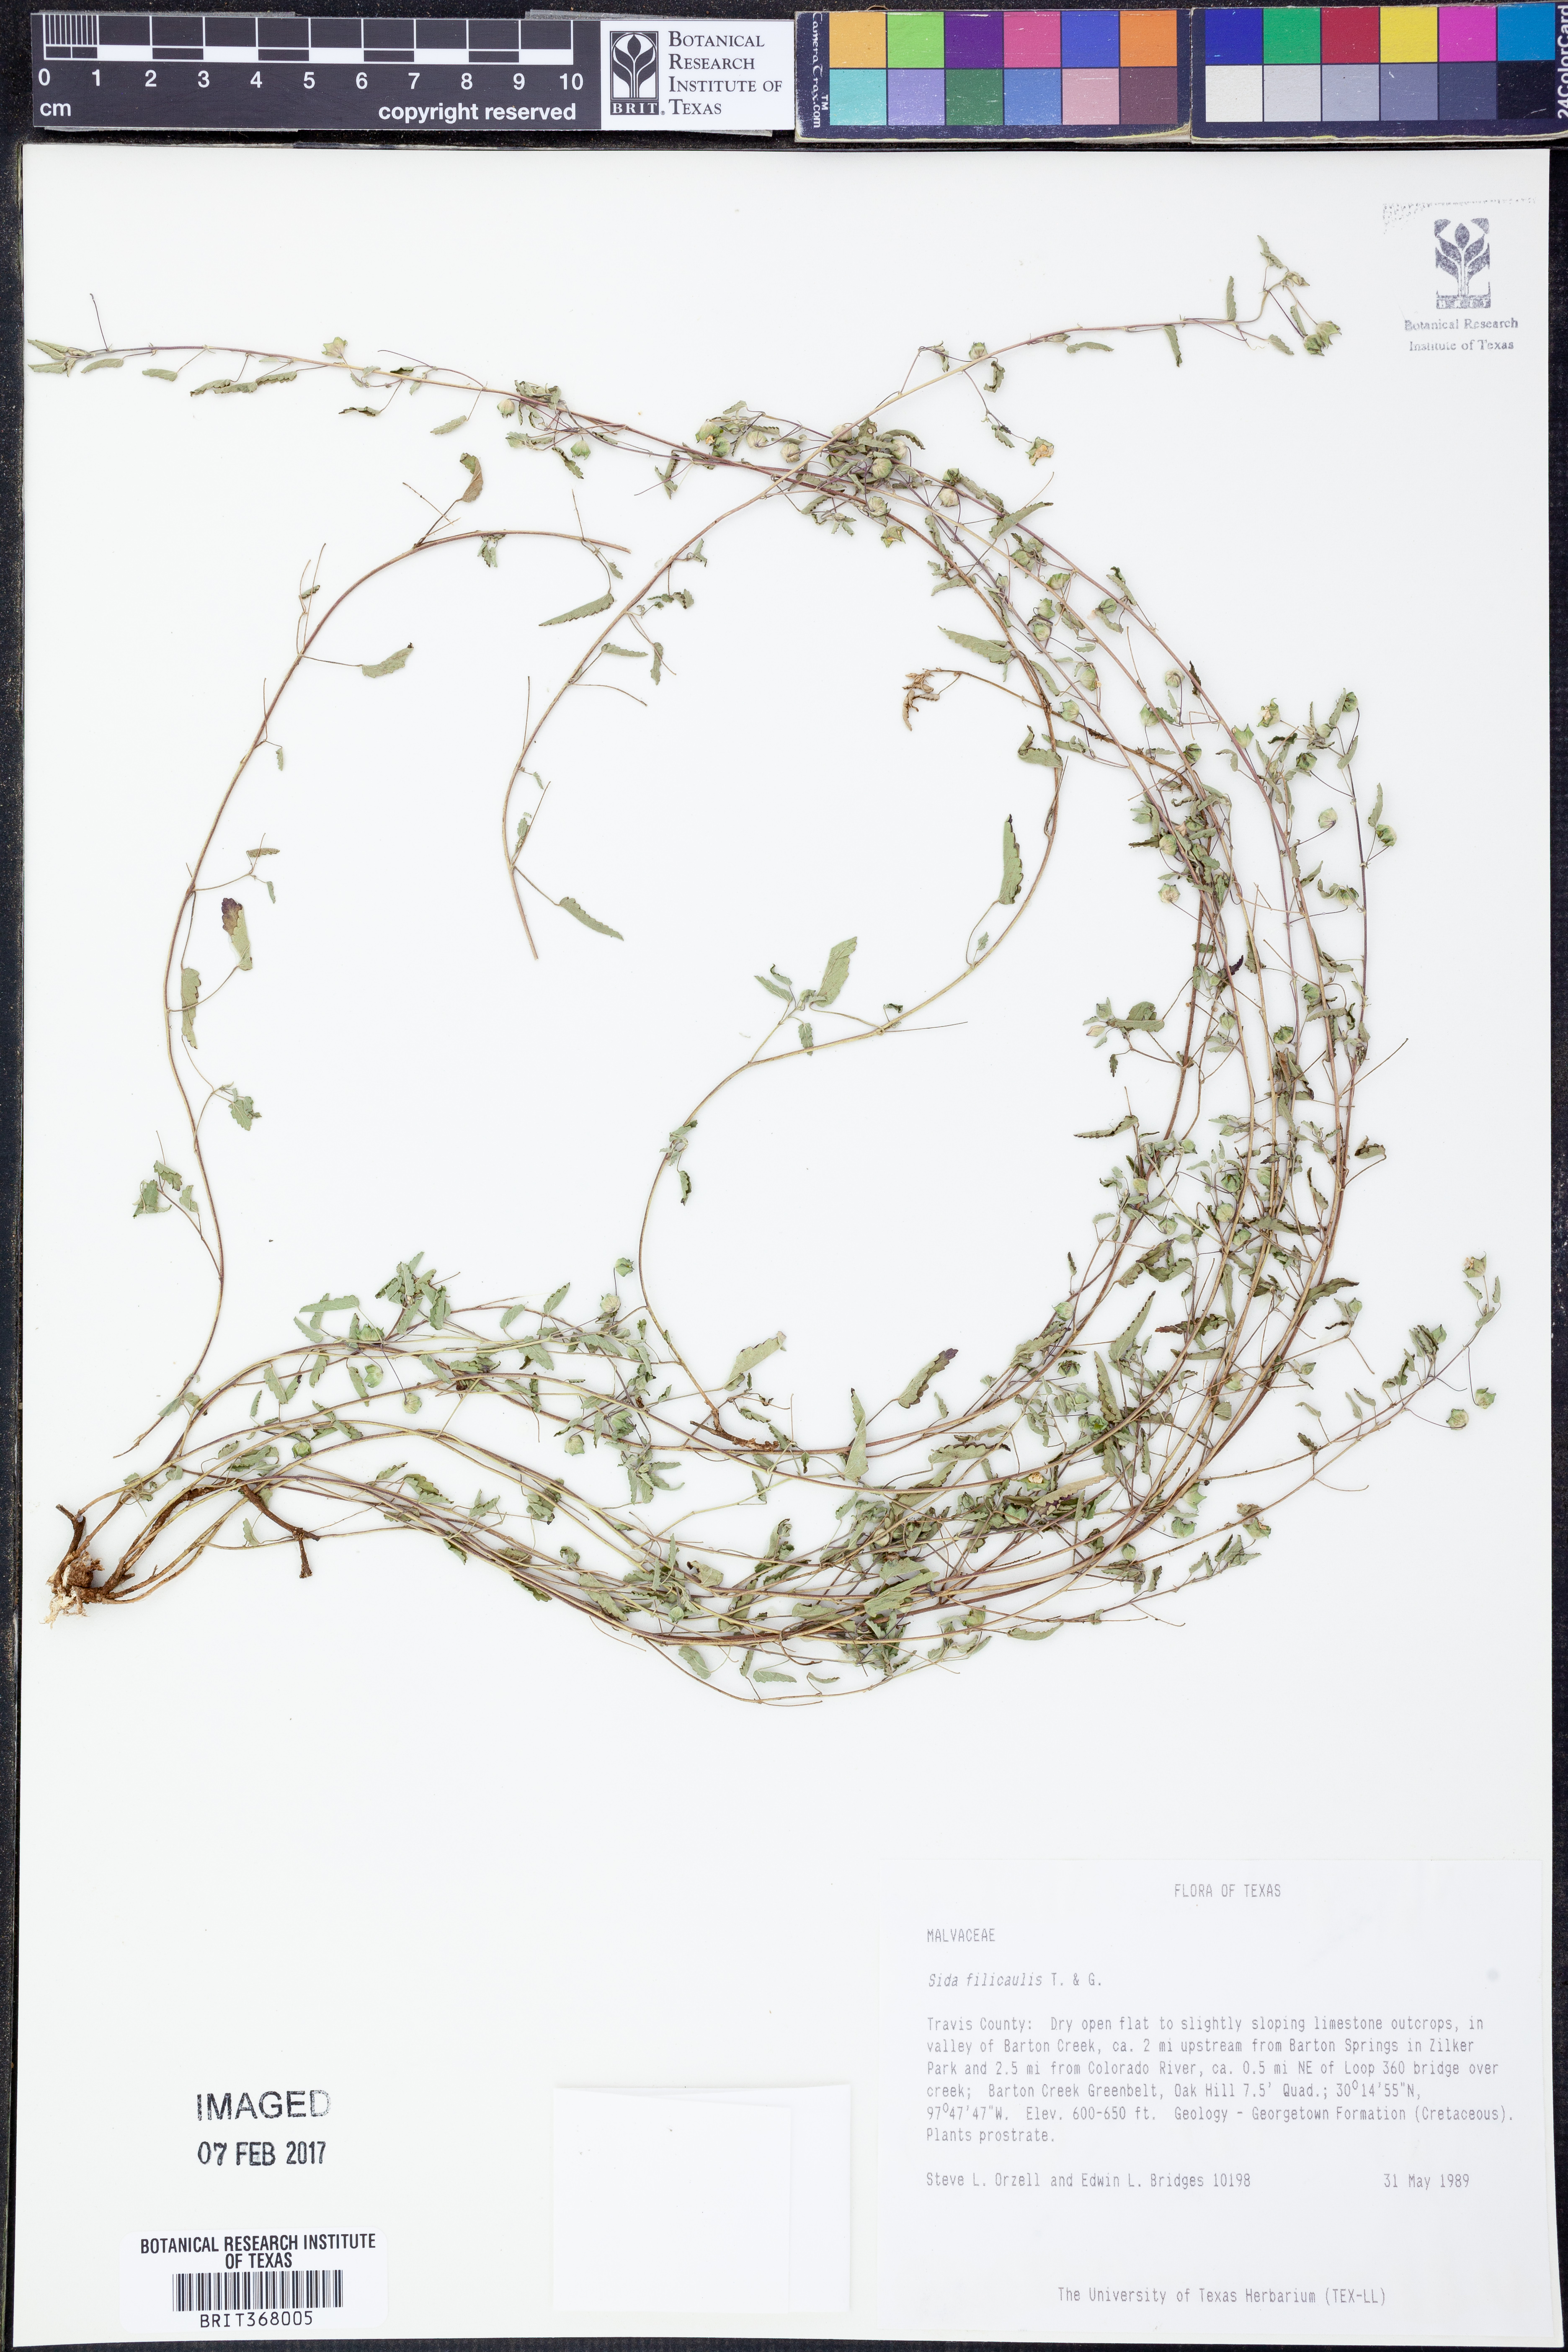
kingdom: Plantae
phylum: Tracheophyta
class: Magnoliopsida
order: Malvales
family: Malvaceae
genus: Sida
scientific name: Sida abutilifolia
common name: Spreading fanpetals
